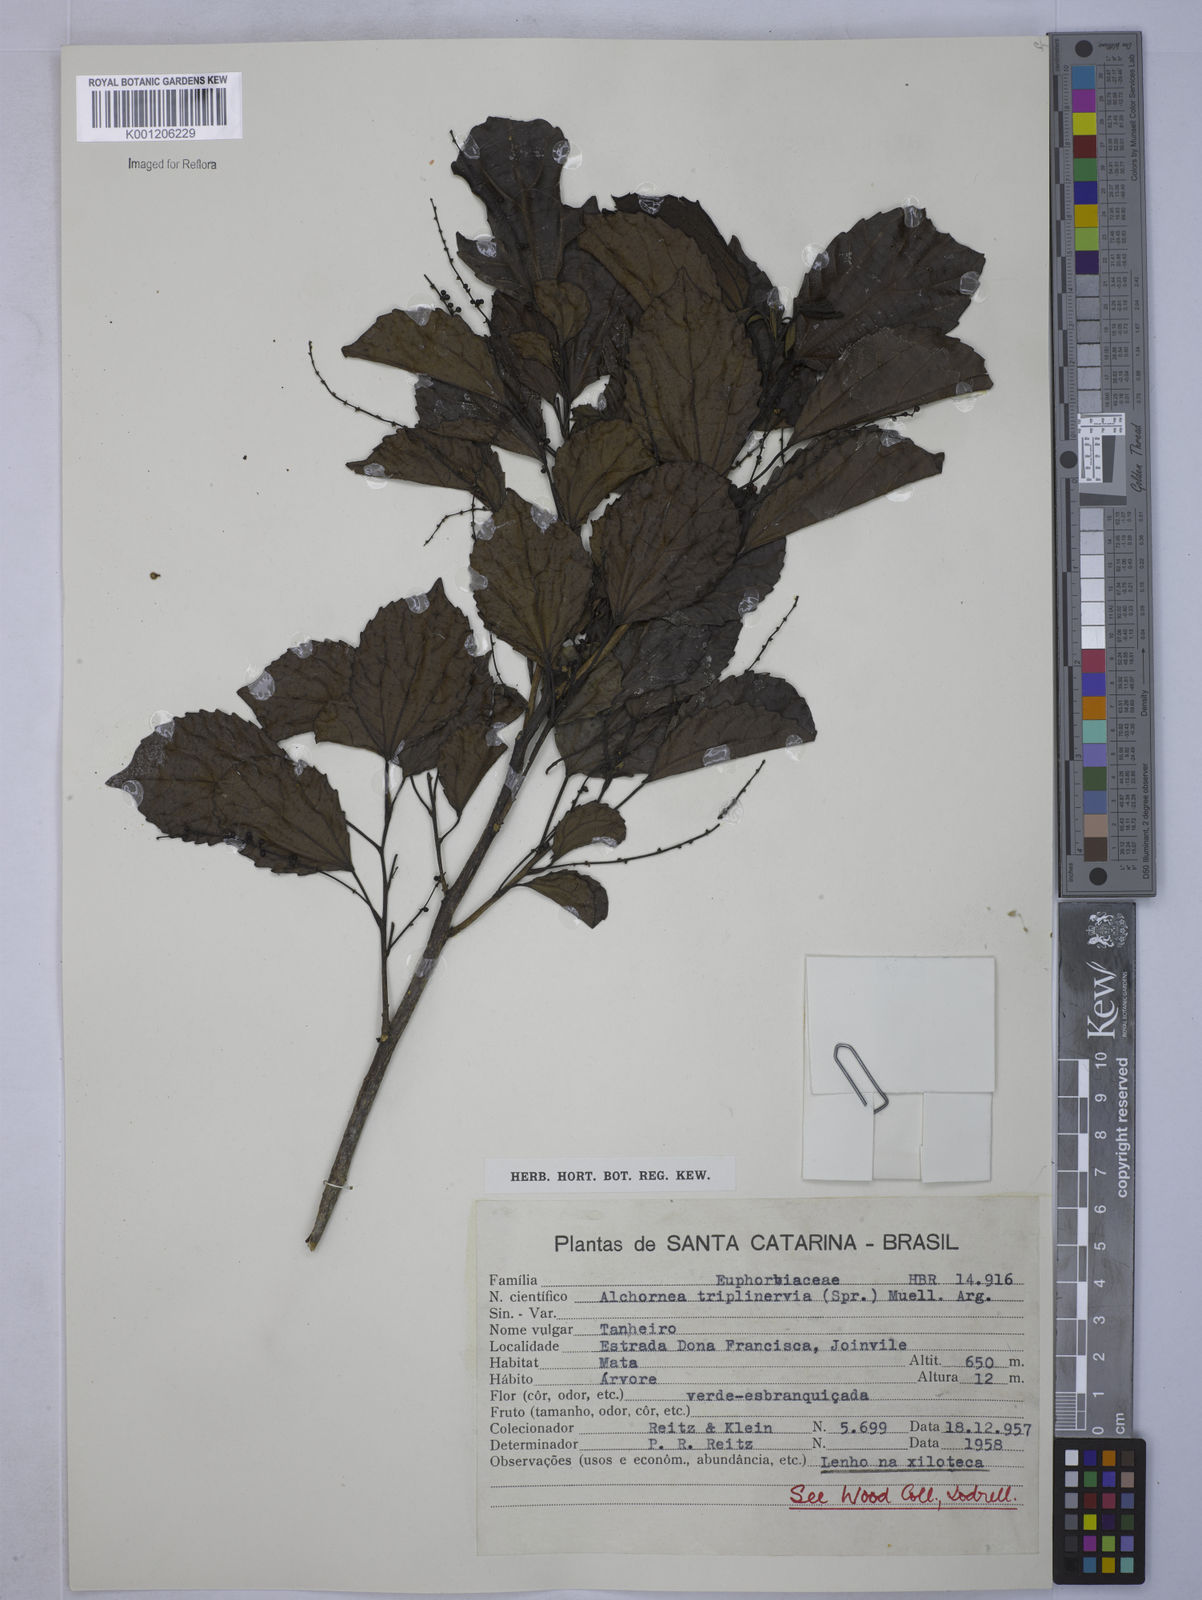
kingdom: Plantae
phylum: Tracheophyta
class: Magnoliopsida
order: Malpighiales
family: Euphorbiaceae
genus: Alchornea
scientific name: Alchornea
